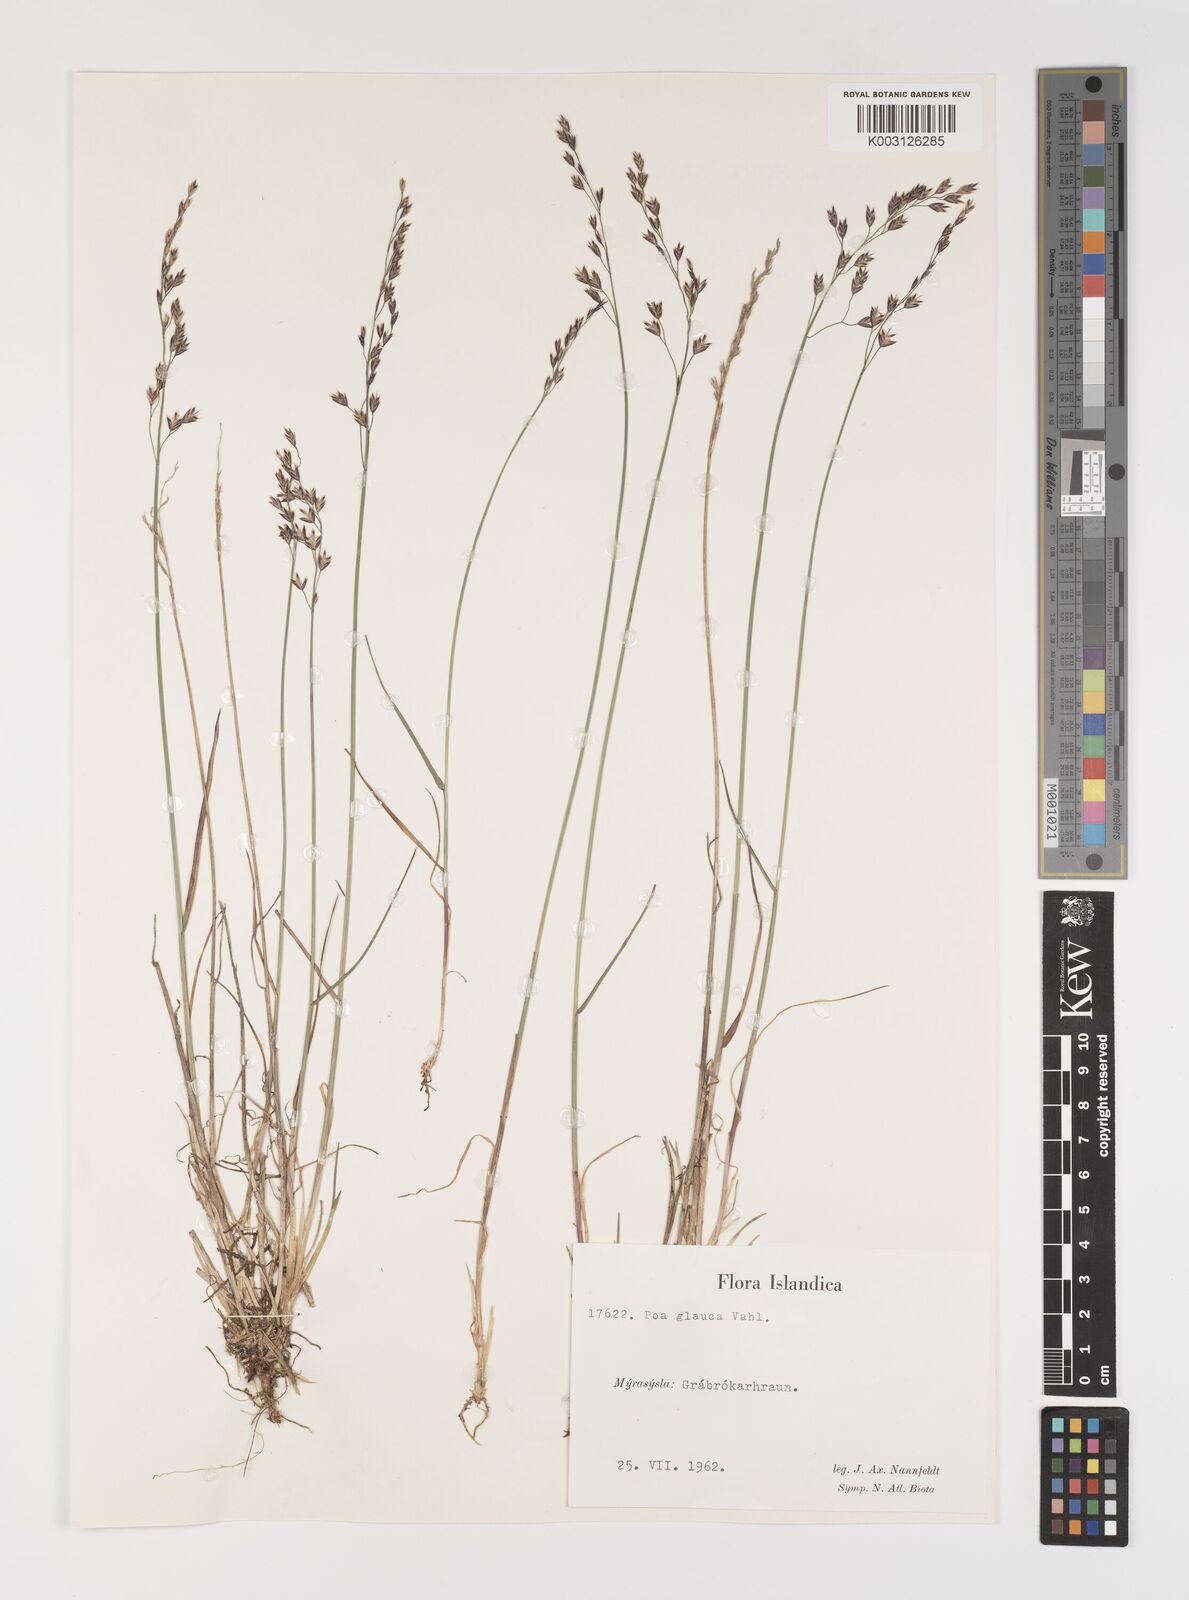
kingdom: Plantae
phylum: Tracheophyta
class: Liliopsida
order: Poales
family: Poaceae
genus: Poa
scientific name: Poa glauca
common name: Glaucous bluegrass
